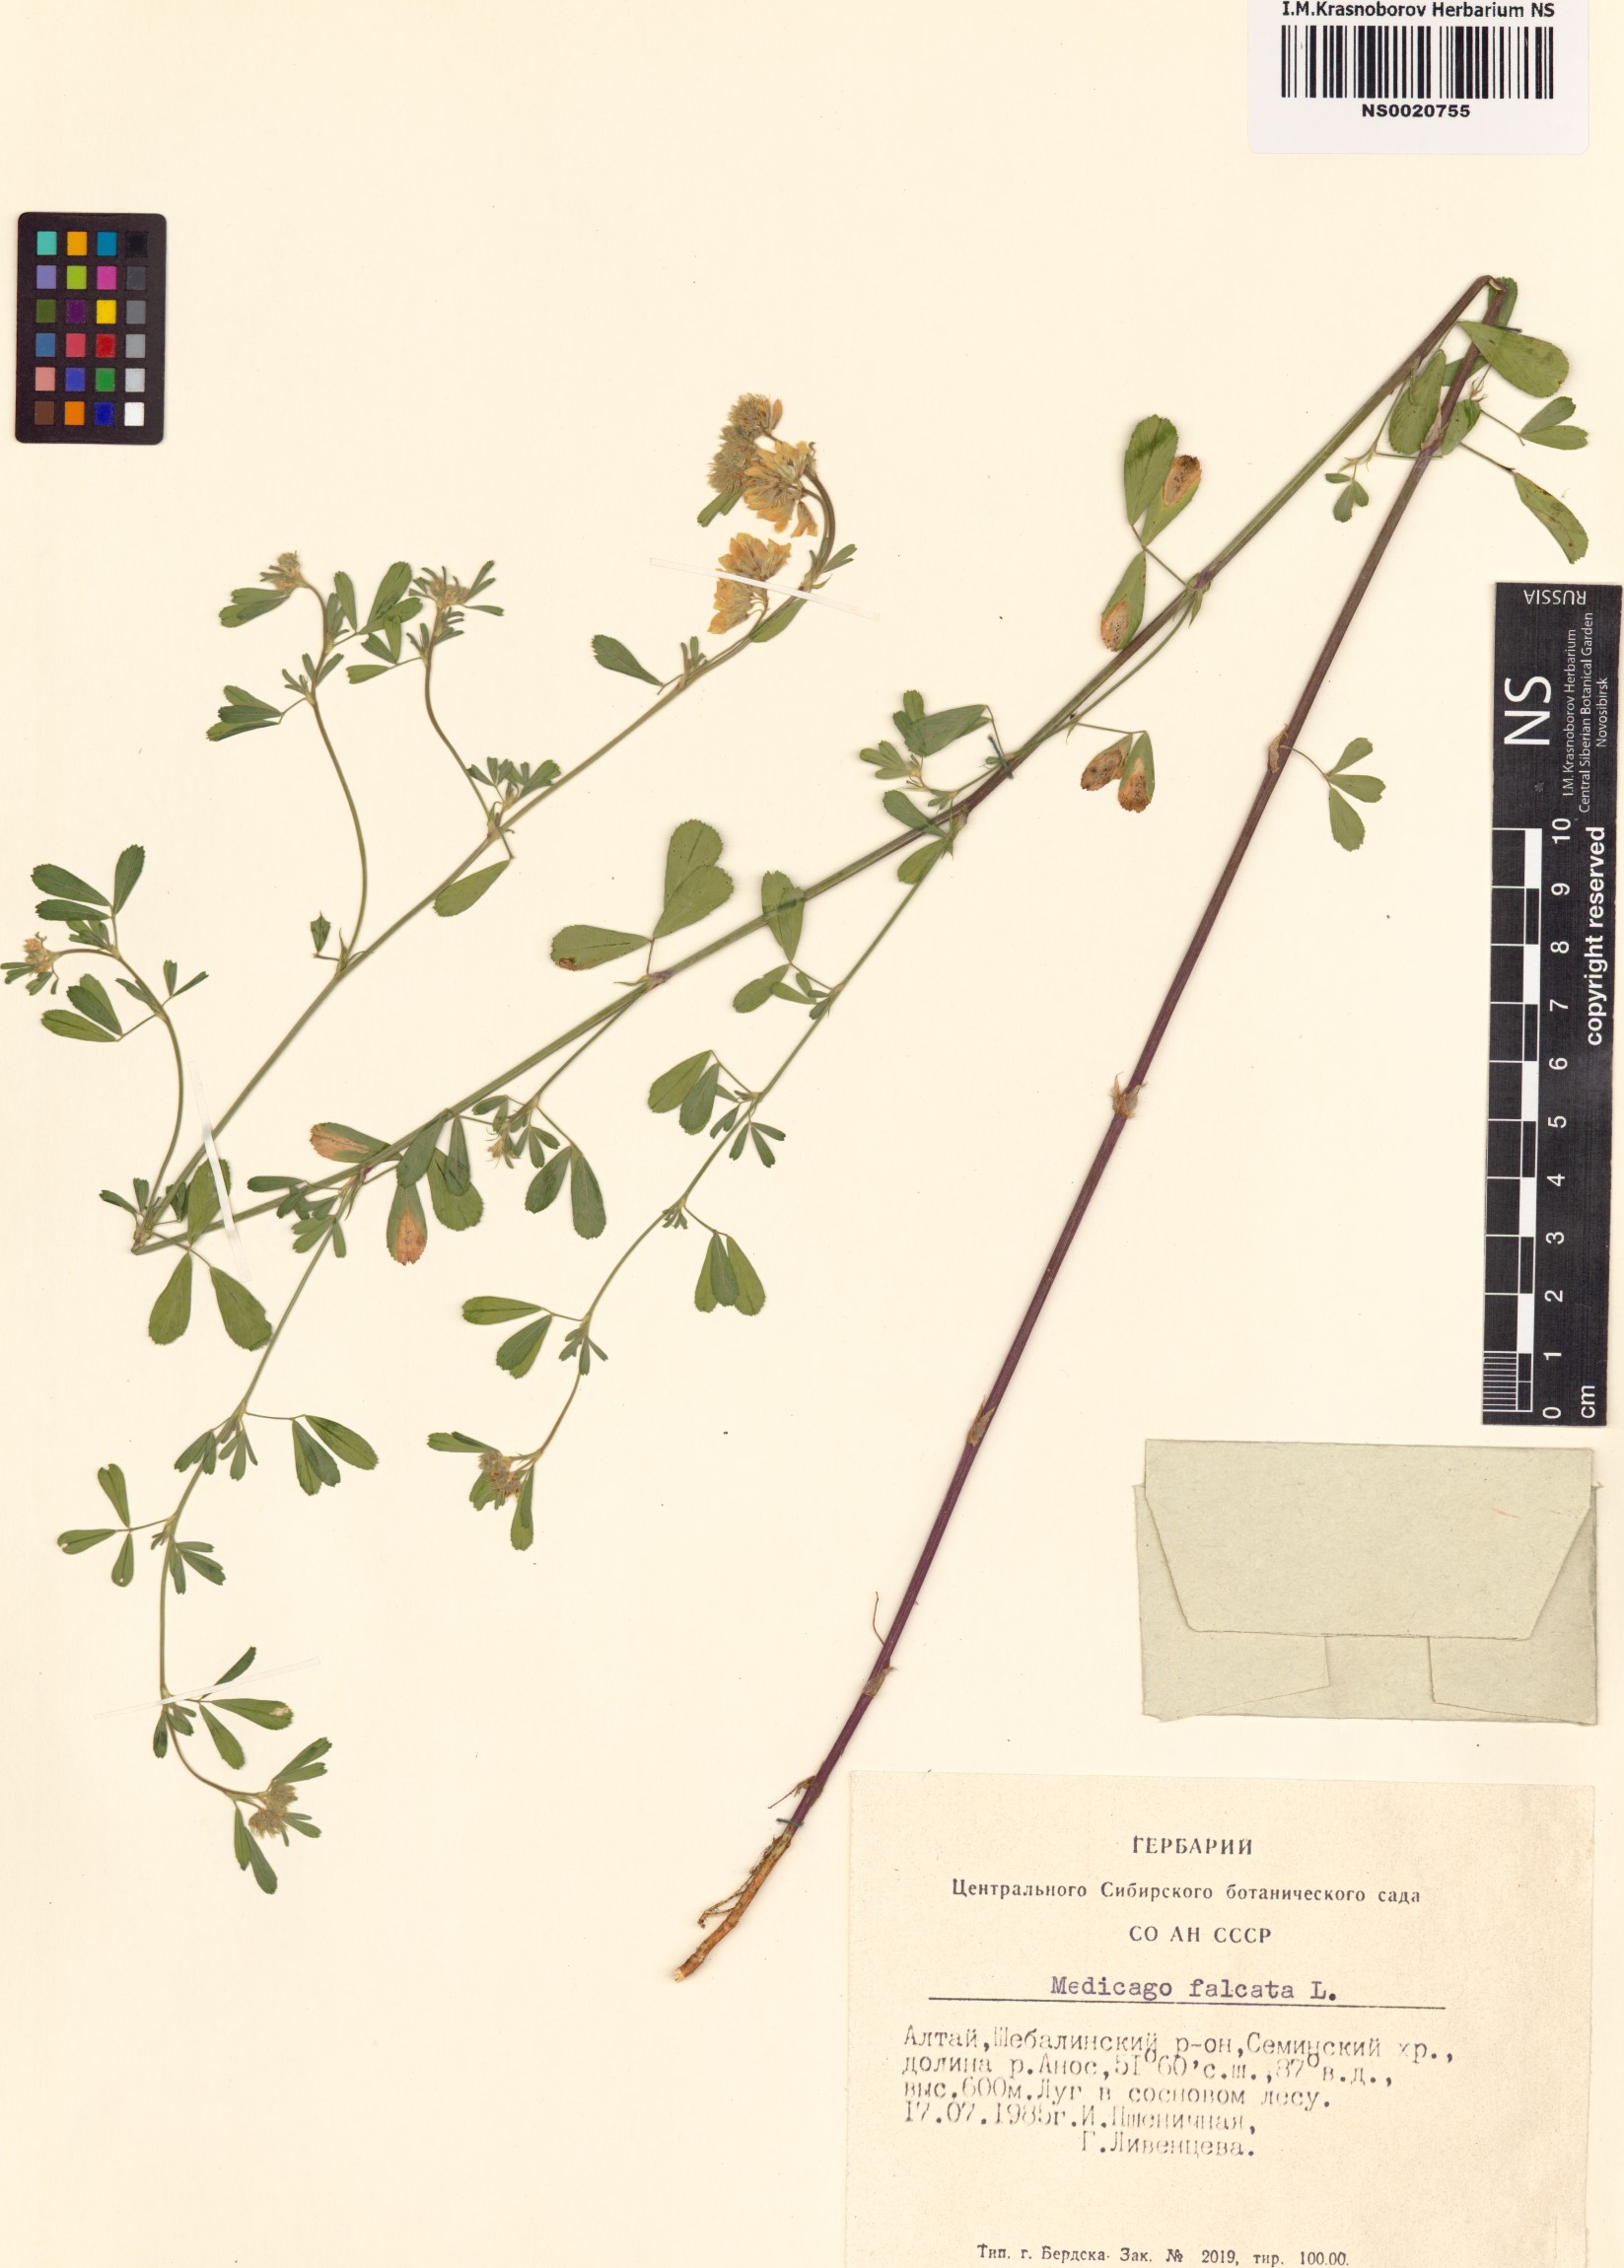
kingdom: Plantae
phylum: Tracheophyta
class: Magnoliopsida
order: Fabales
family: Fabaceae
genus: Medicago
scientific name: Medicago falcata
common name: Sickle medick
